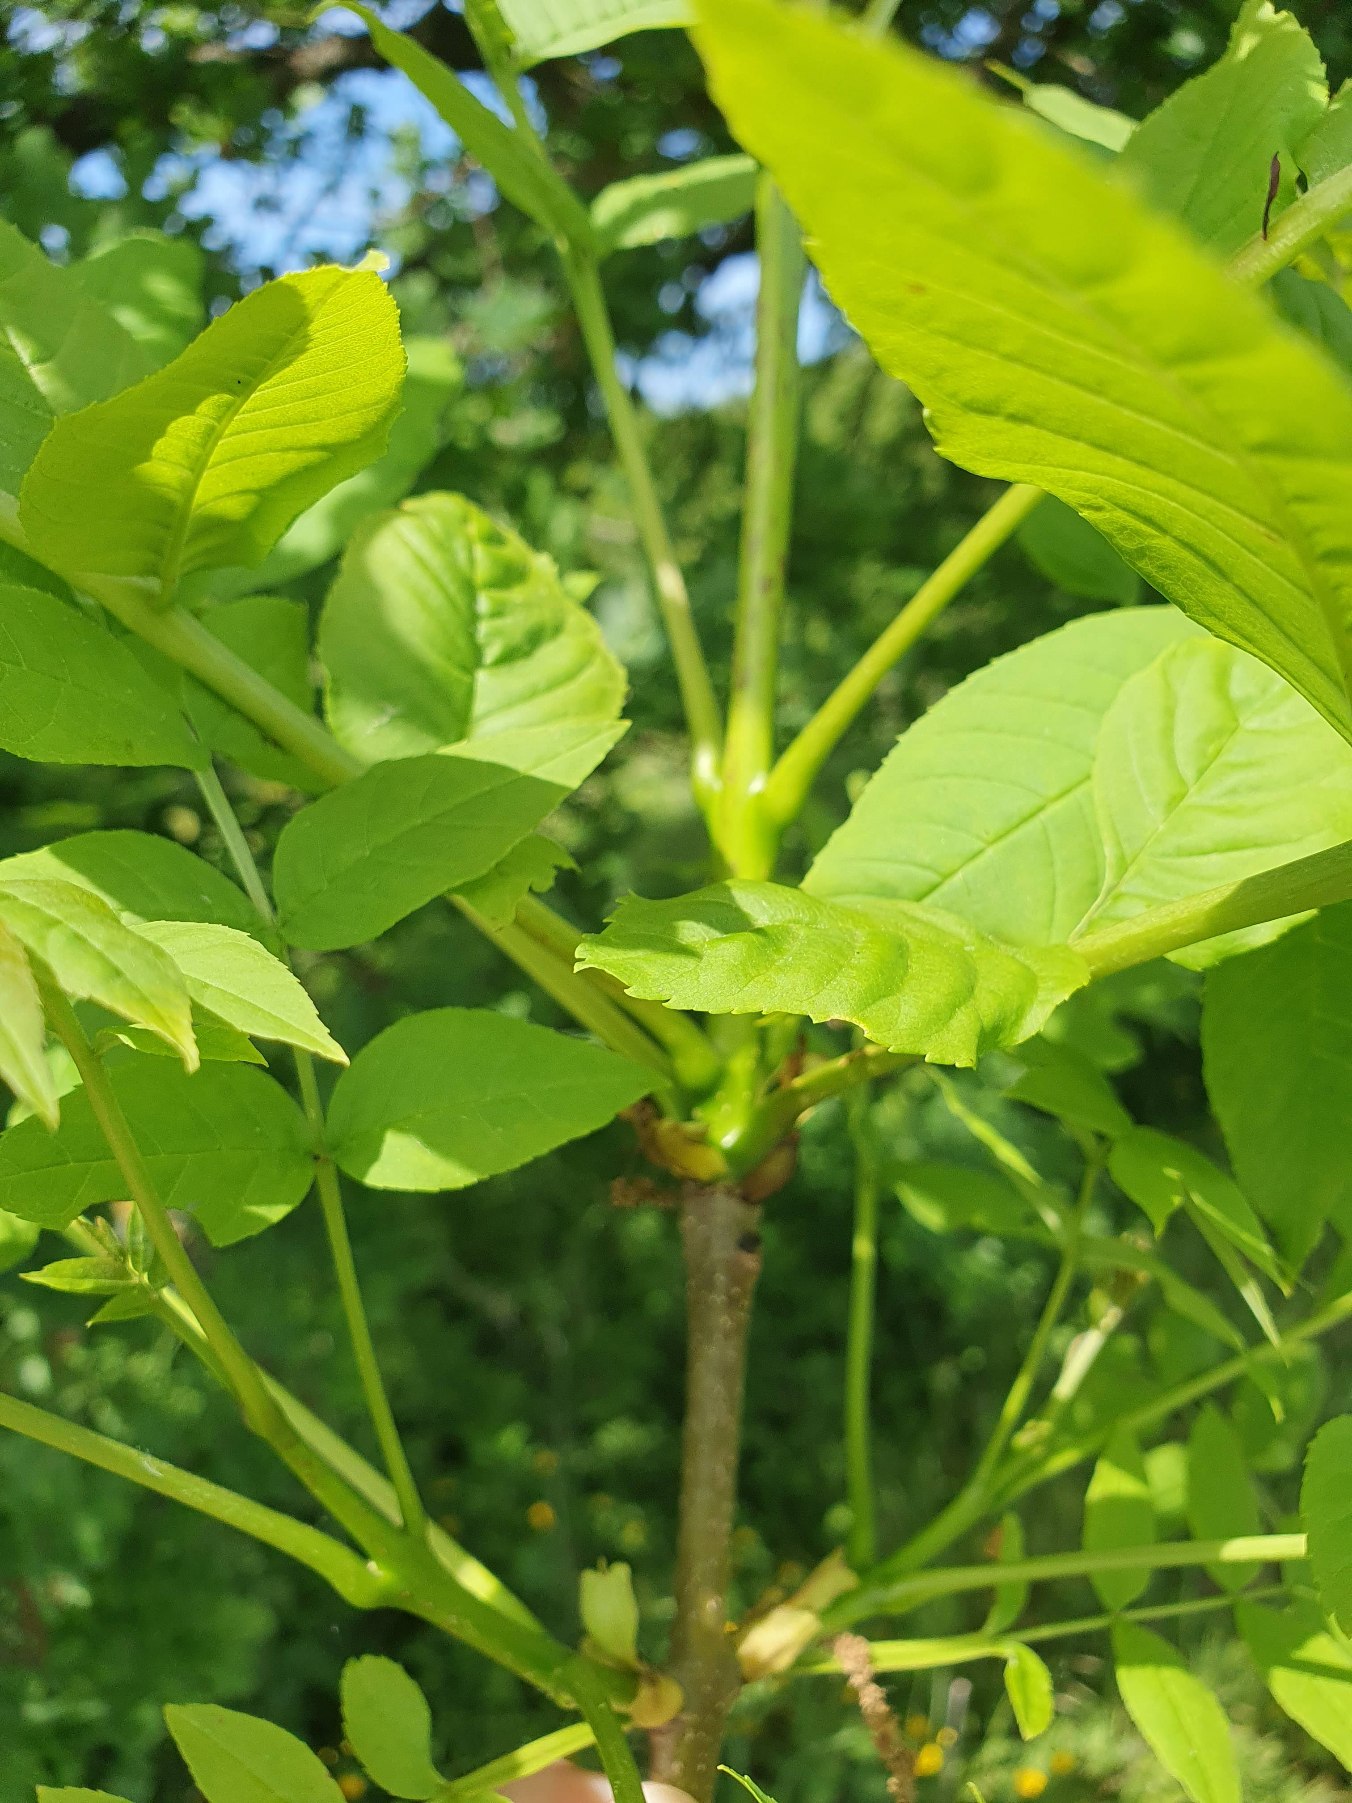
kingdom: Plantae
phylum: Tracheophyta
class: Magnoliopsida
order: Lamiales
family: Oleaceae
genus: Fraxinus
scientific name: Fraxinus excelsior
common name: Ask
